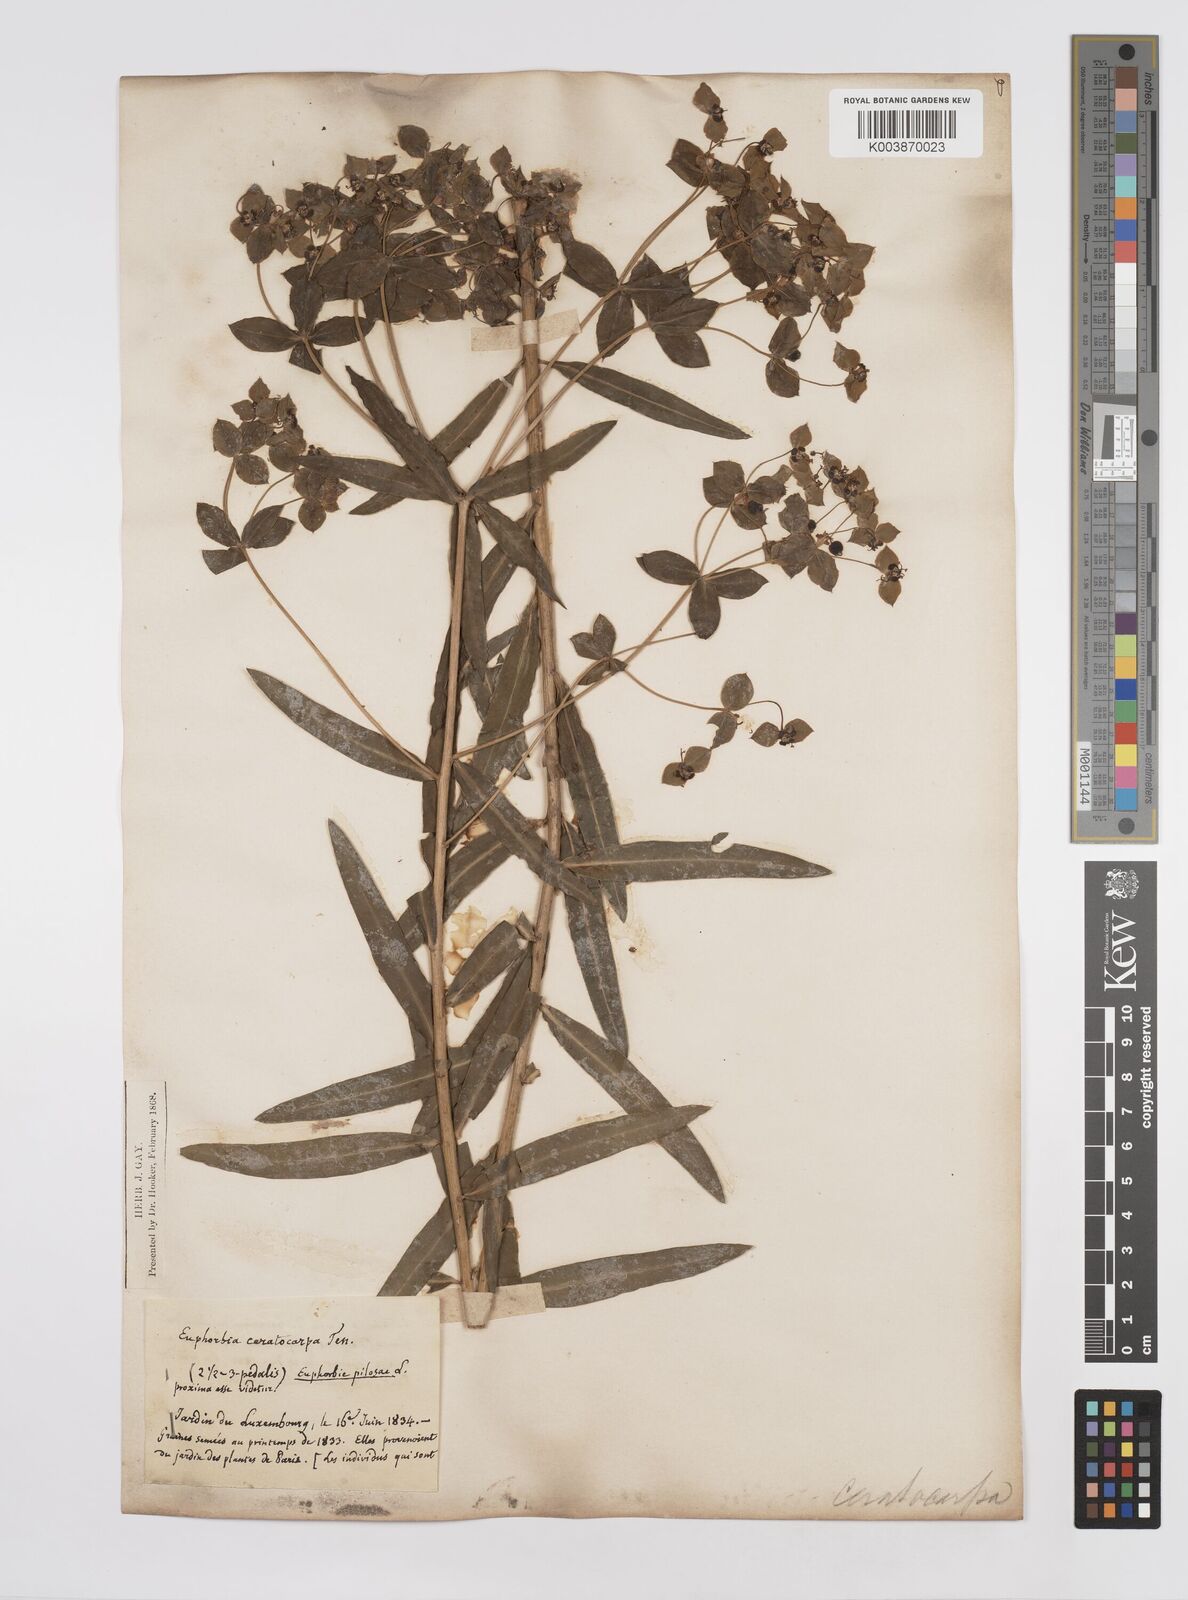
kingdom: Plantae
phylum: Tracheophyta
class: Magnoliopsida
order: Malpighiales
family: Euphorbiaceae
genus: Euphorbia
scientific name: Euphorbia ceratocarpa
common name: Horned spurge
